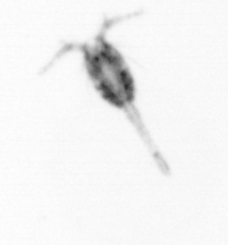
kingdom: Animalia
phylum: Arthropoda
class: Copepoda
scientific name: Copepoda
